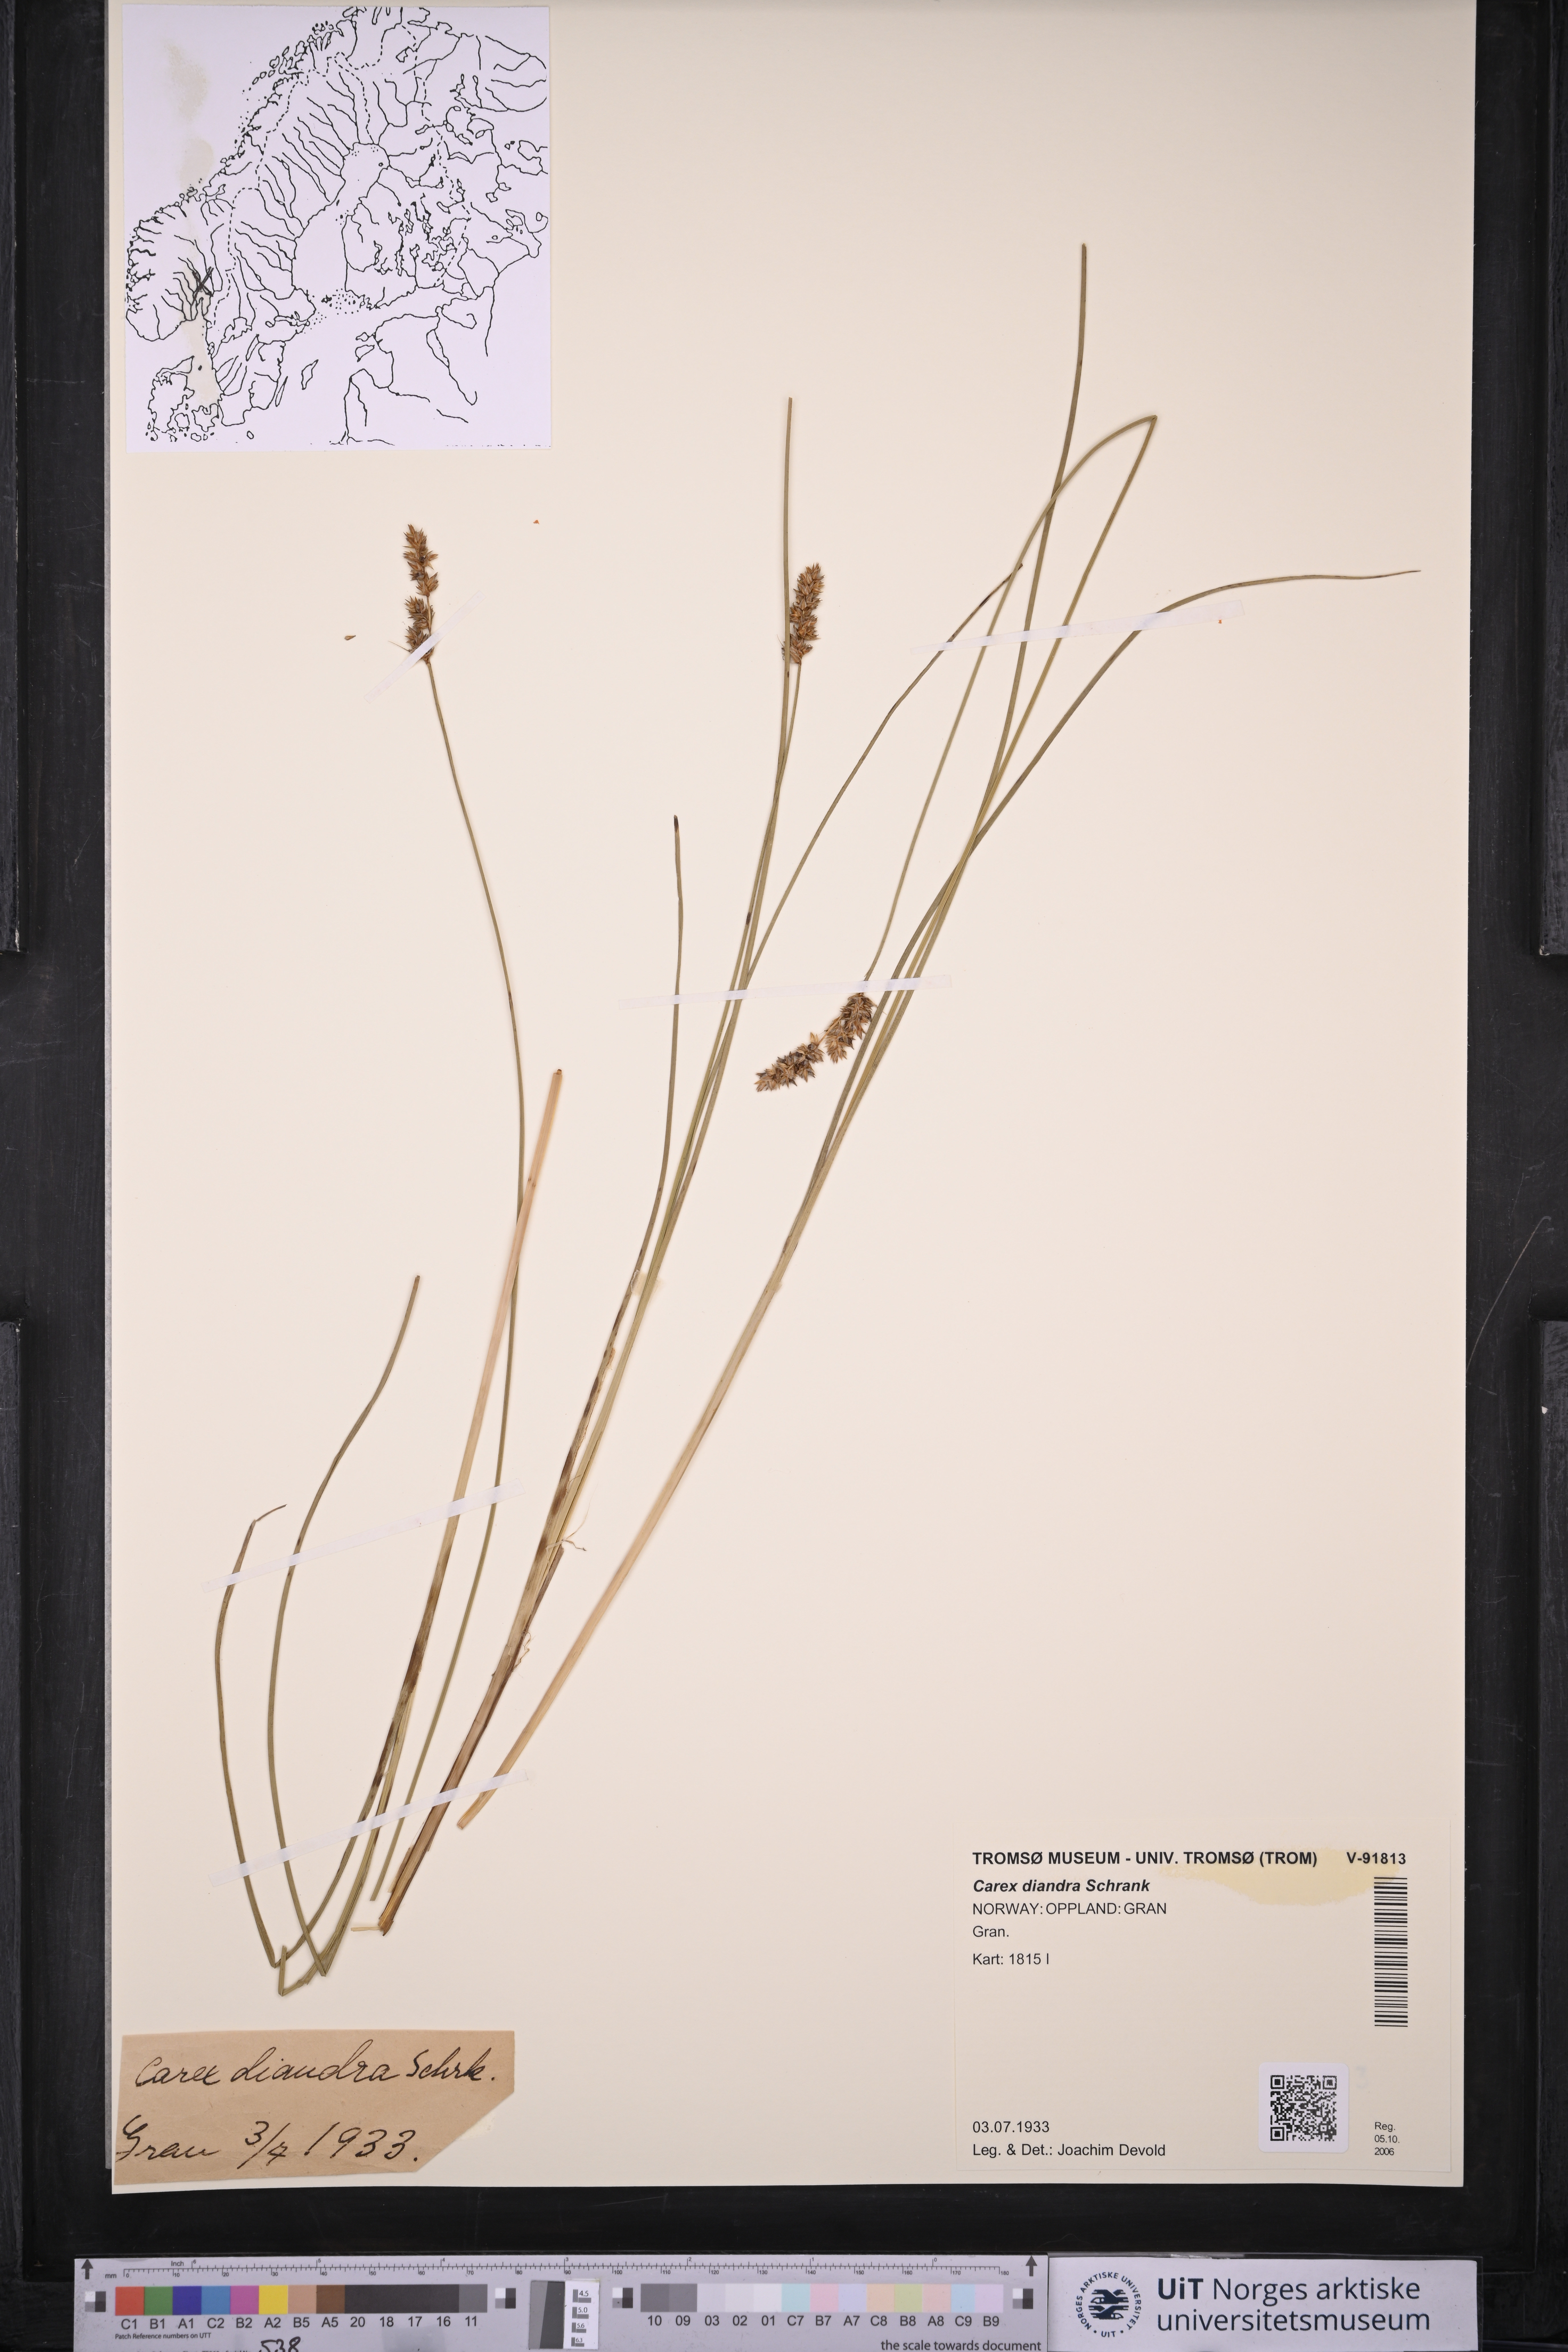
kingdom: Plantae
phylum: Tracheophyta
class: Liliopsida
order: Poales
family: Cyperaceae
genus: Carex
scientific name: Carex diandra
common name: Lesser tussock-sedge
